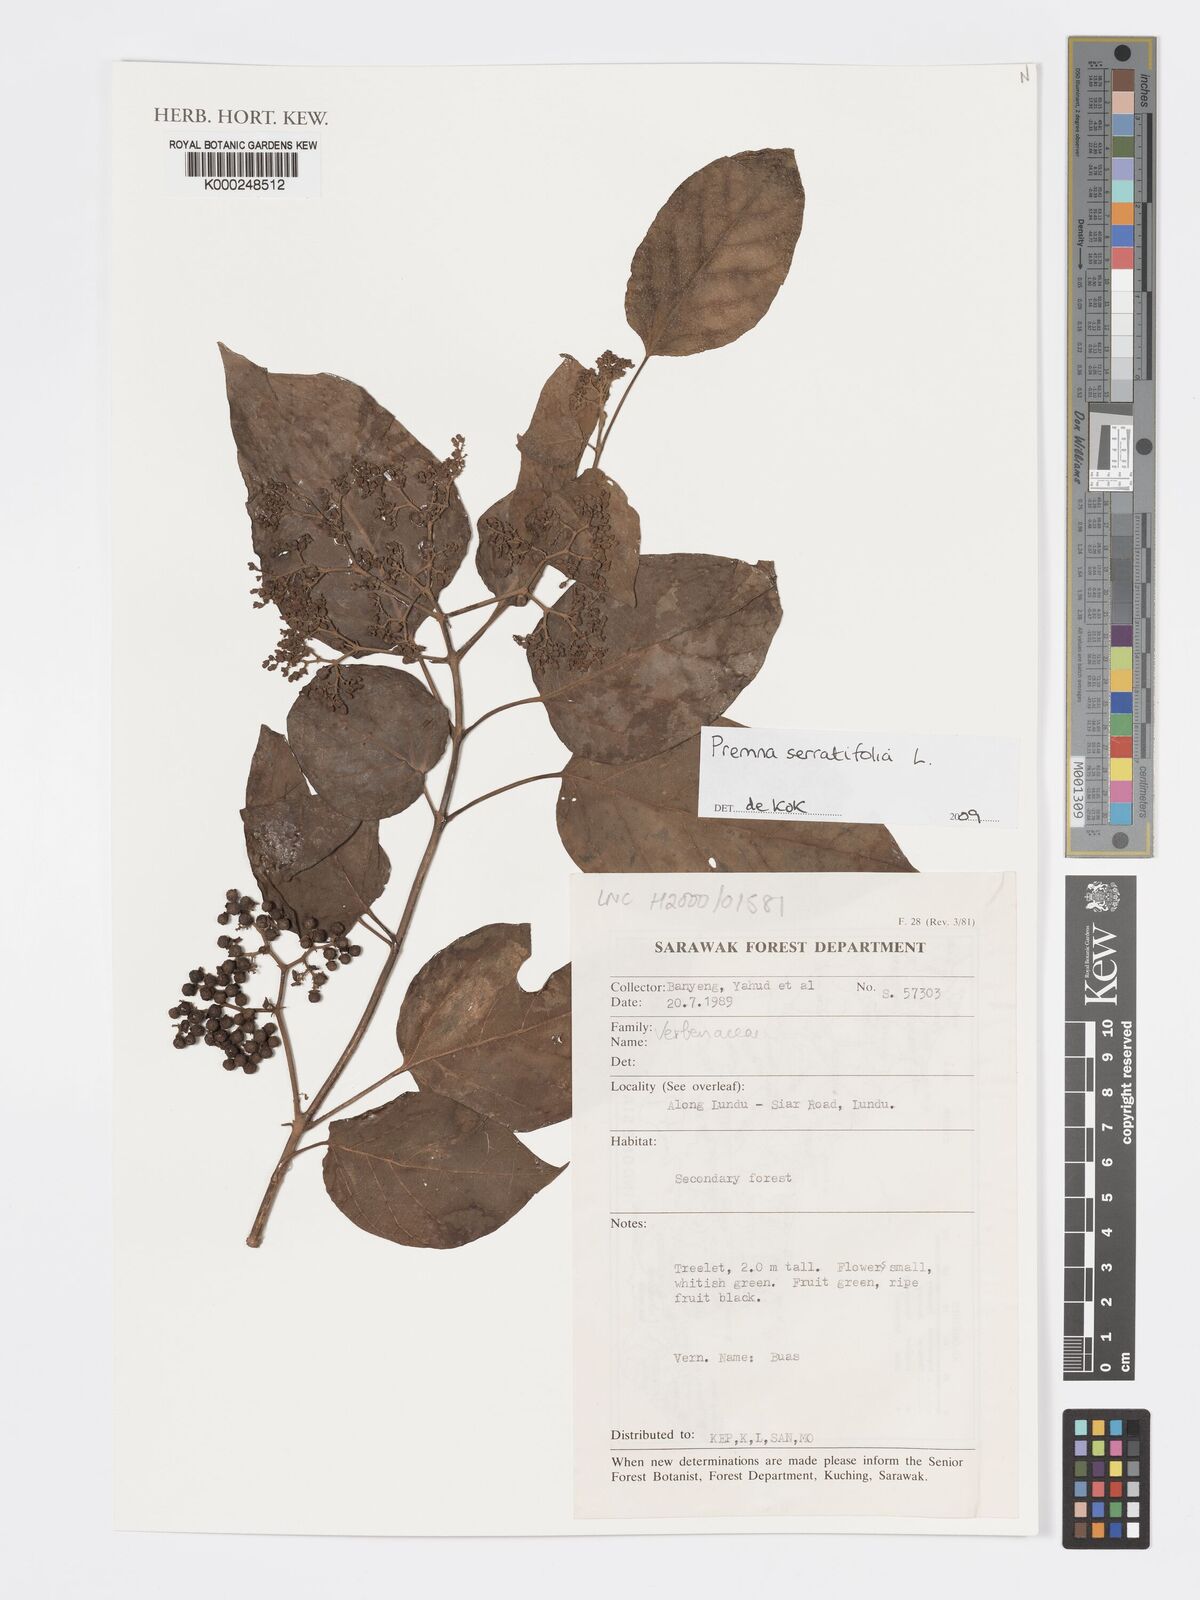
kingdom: Plantae
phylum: Tracheophyta
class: Magnoliopsida
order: Lamiales
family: Lamiaceae
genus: Premna
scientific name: Premna serratifolia
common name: Bastard guelder
